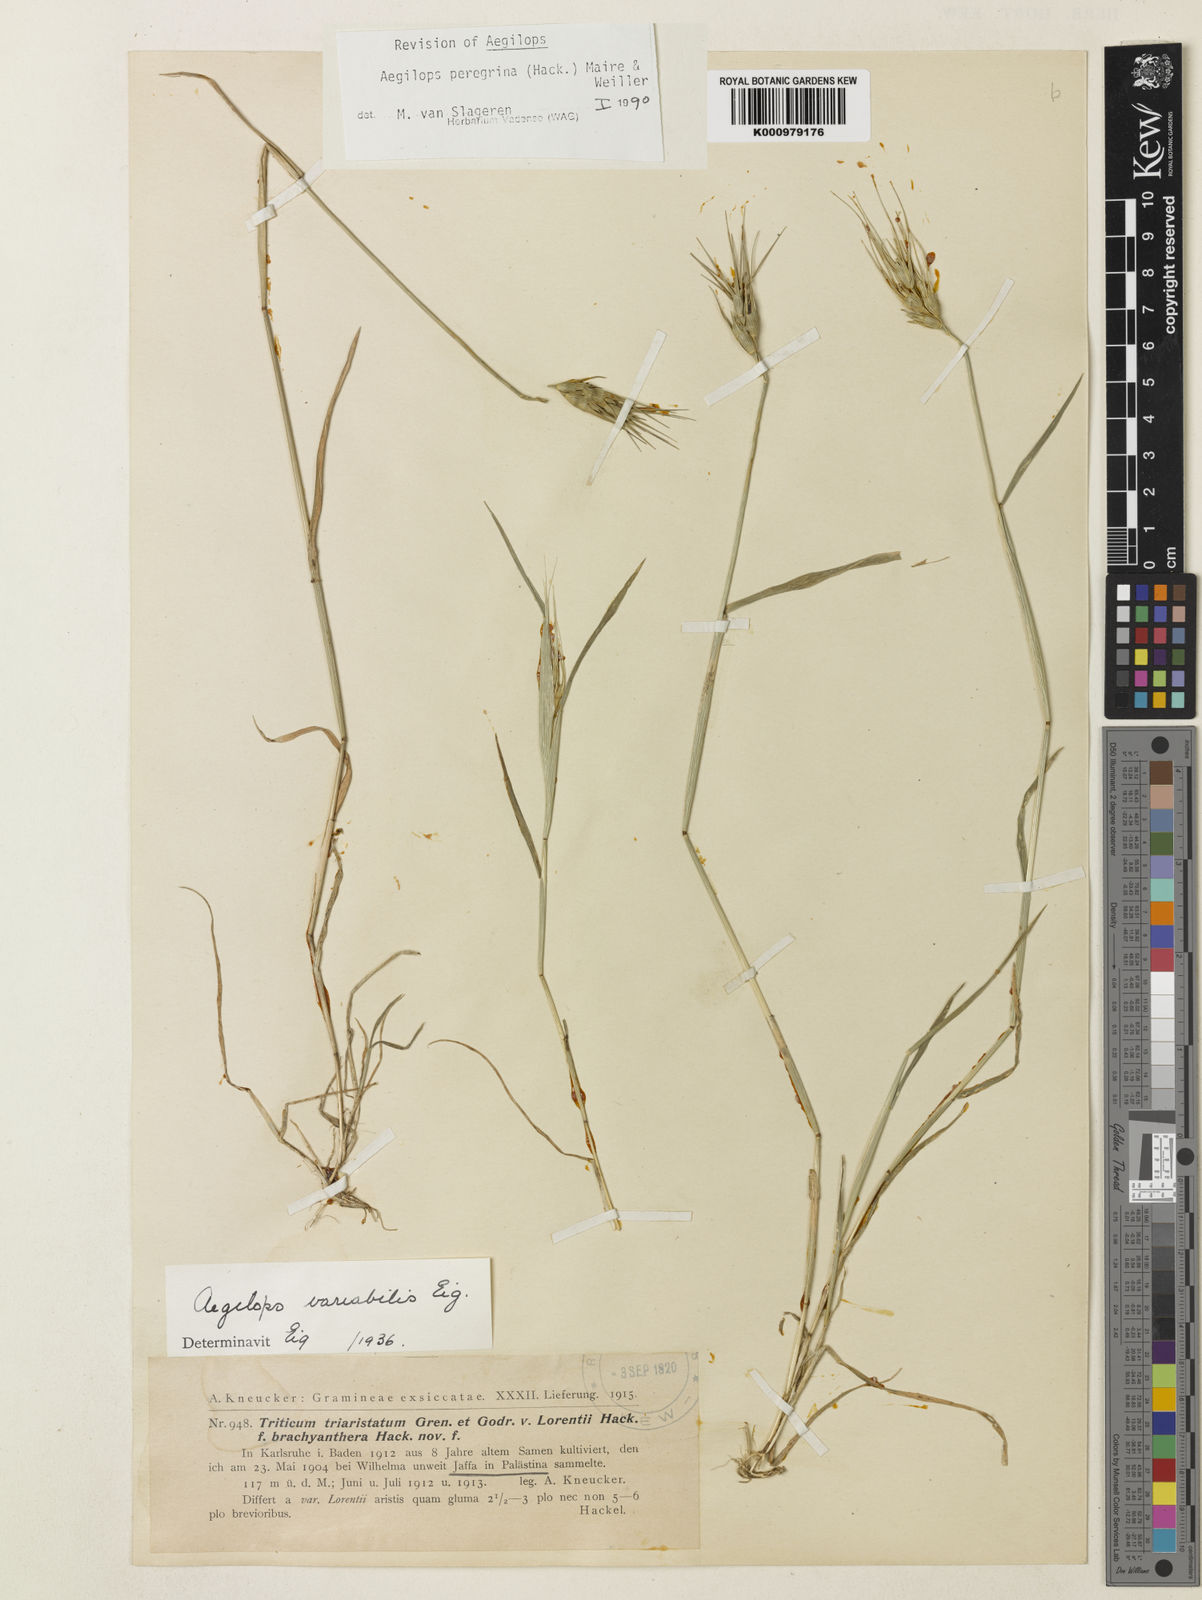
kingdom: Plantae
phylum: Tracheophyta
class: Liliopsida
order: Poales
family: Poaceae
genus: Aegilops
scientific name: Aegilops peregrina
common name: Goatgrass
